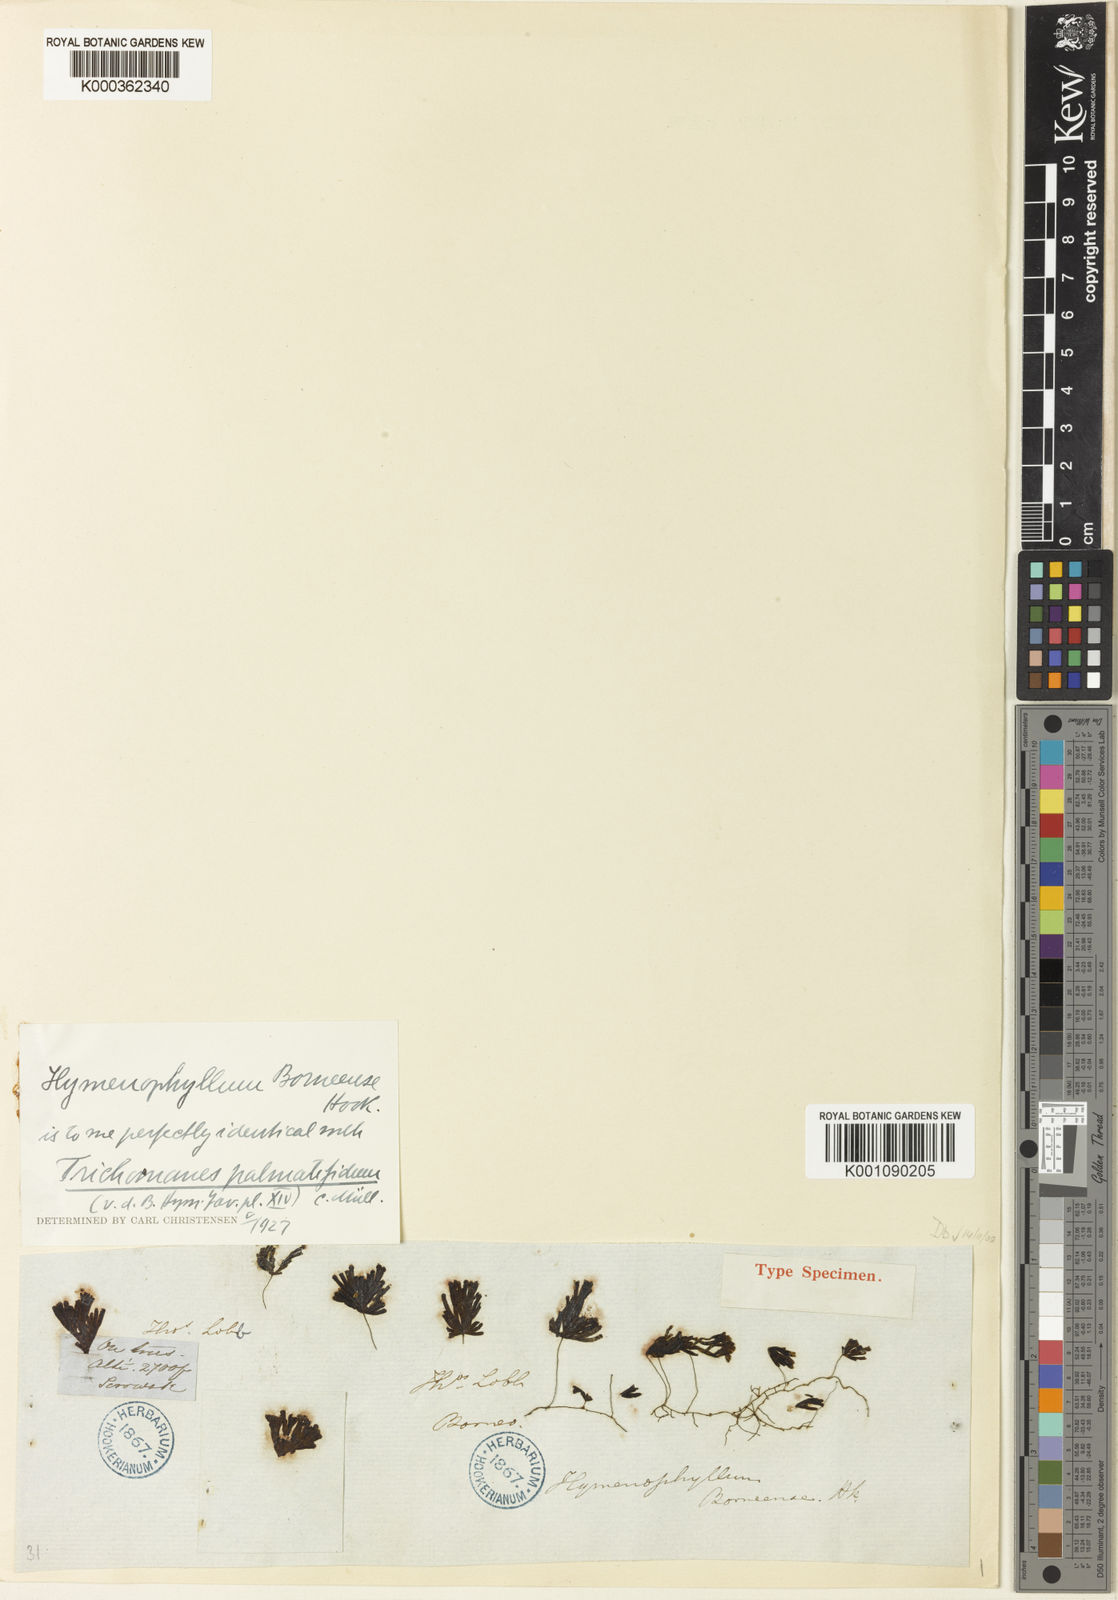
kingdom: Plantae
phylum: Tracheophyta
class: Polypodiopsida
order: Hymenophyllales
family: Hymenophyllaceae
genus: Trichomanes
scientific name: Trichomanes
